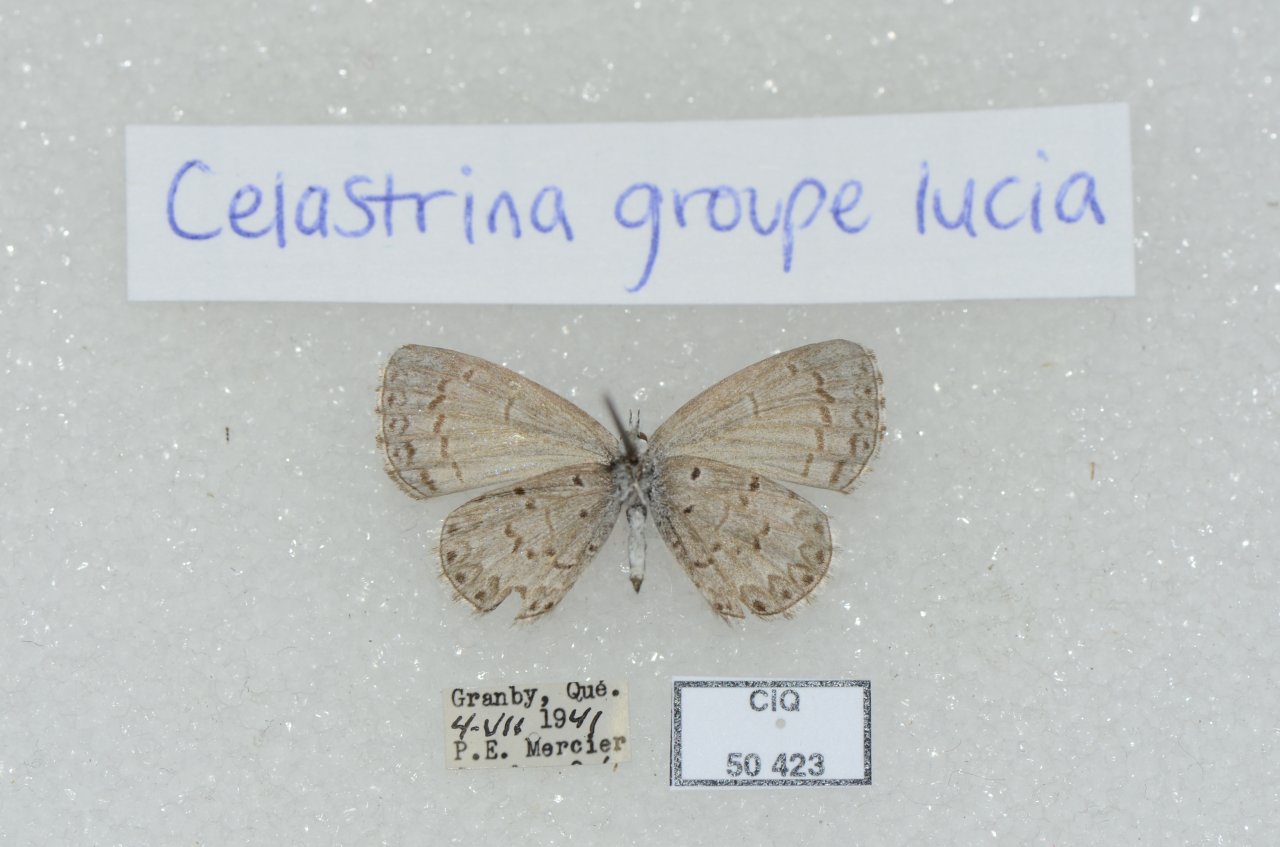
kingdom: Animalia
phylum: Arthropoda
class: Insecta
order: Lepidoptera
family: Lycaenidae
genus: Celastrina
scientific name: Celastrina lucia
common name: Northern Spring Azure
